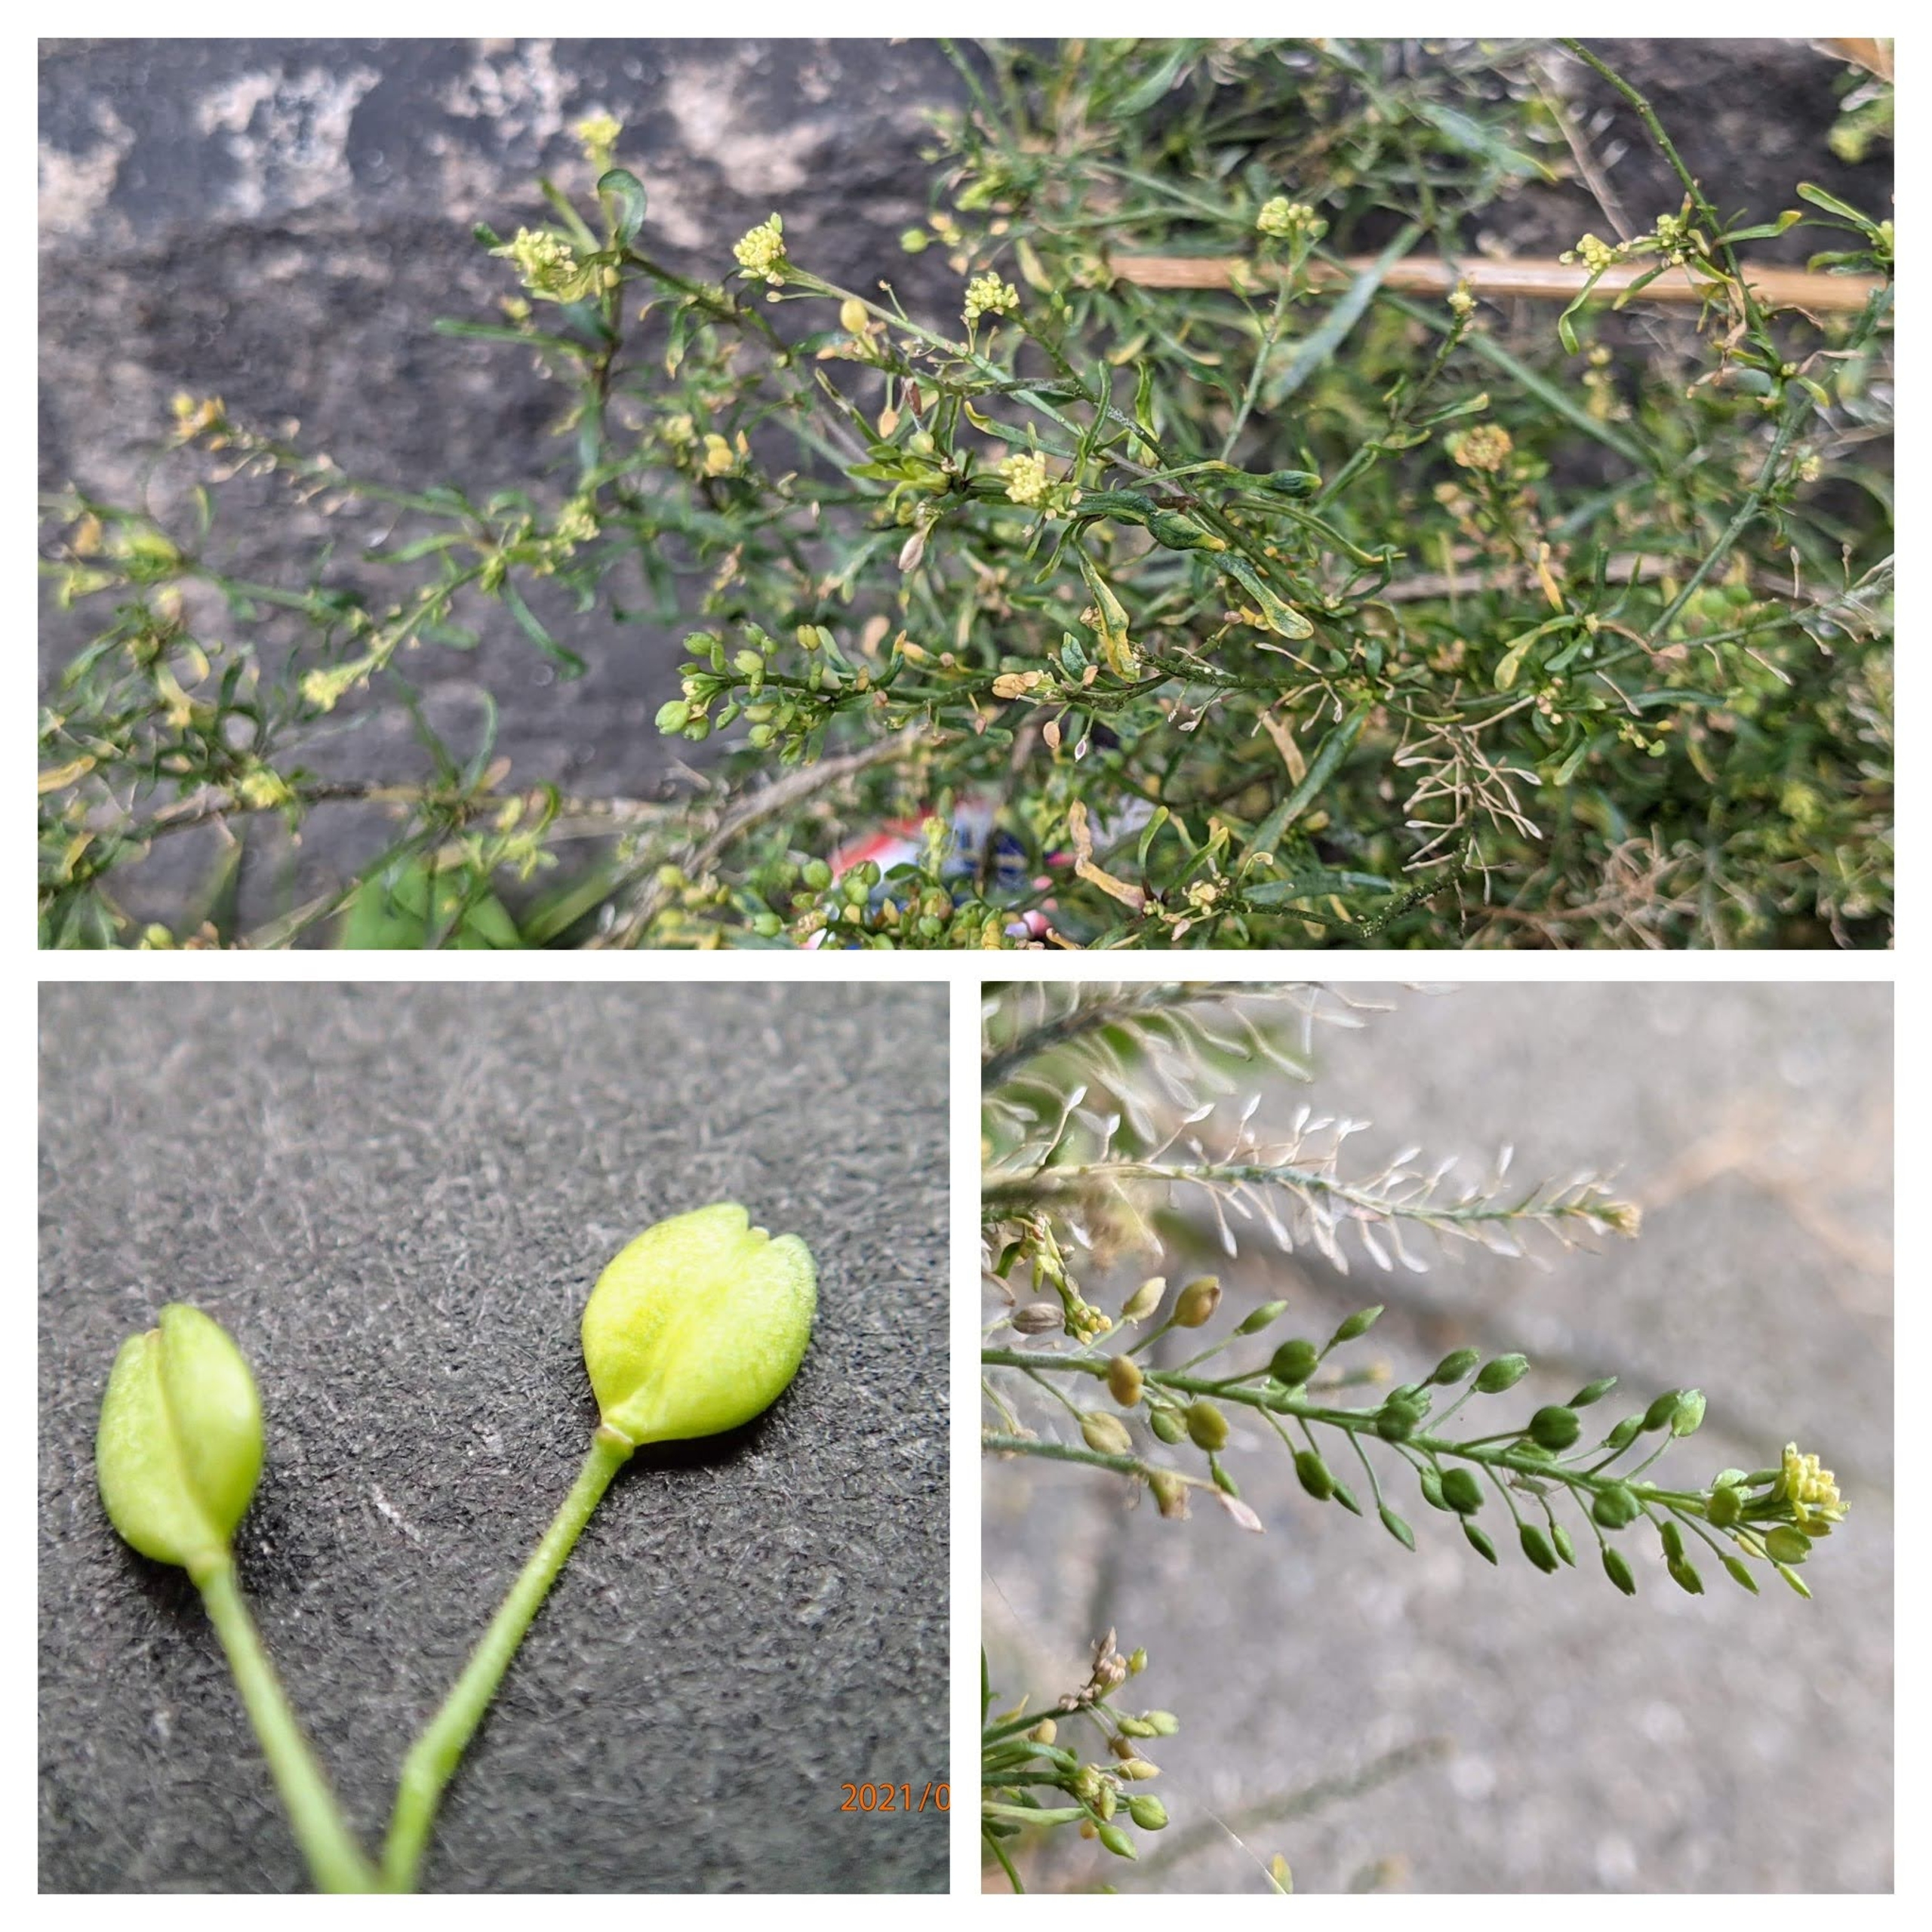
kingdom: Plantae
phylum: Tracheophyta
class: Magnoliopsida
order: Brassicales
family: Brassicaceae
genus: Lepidium
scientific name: Lepidium ruderale
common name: Stinkende karse
